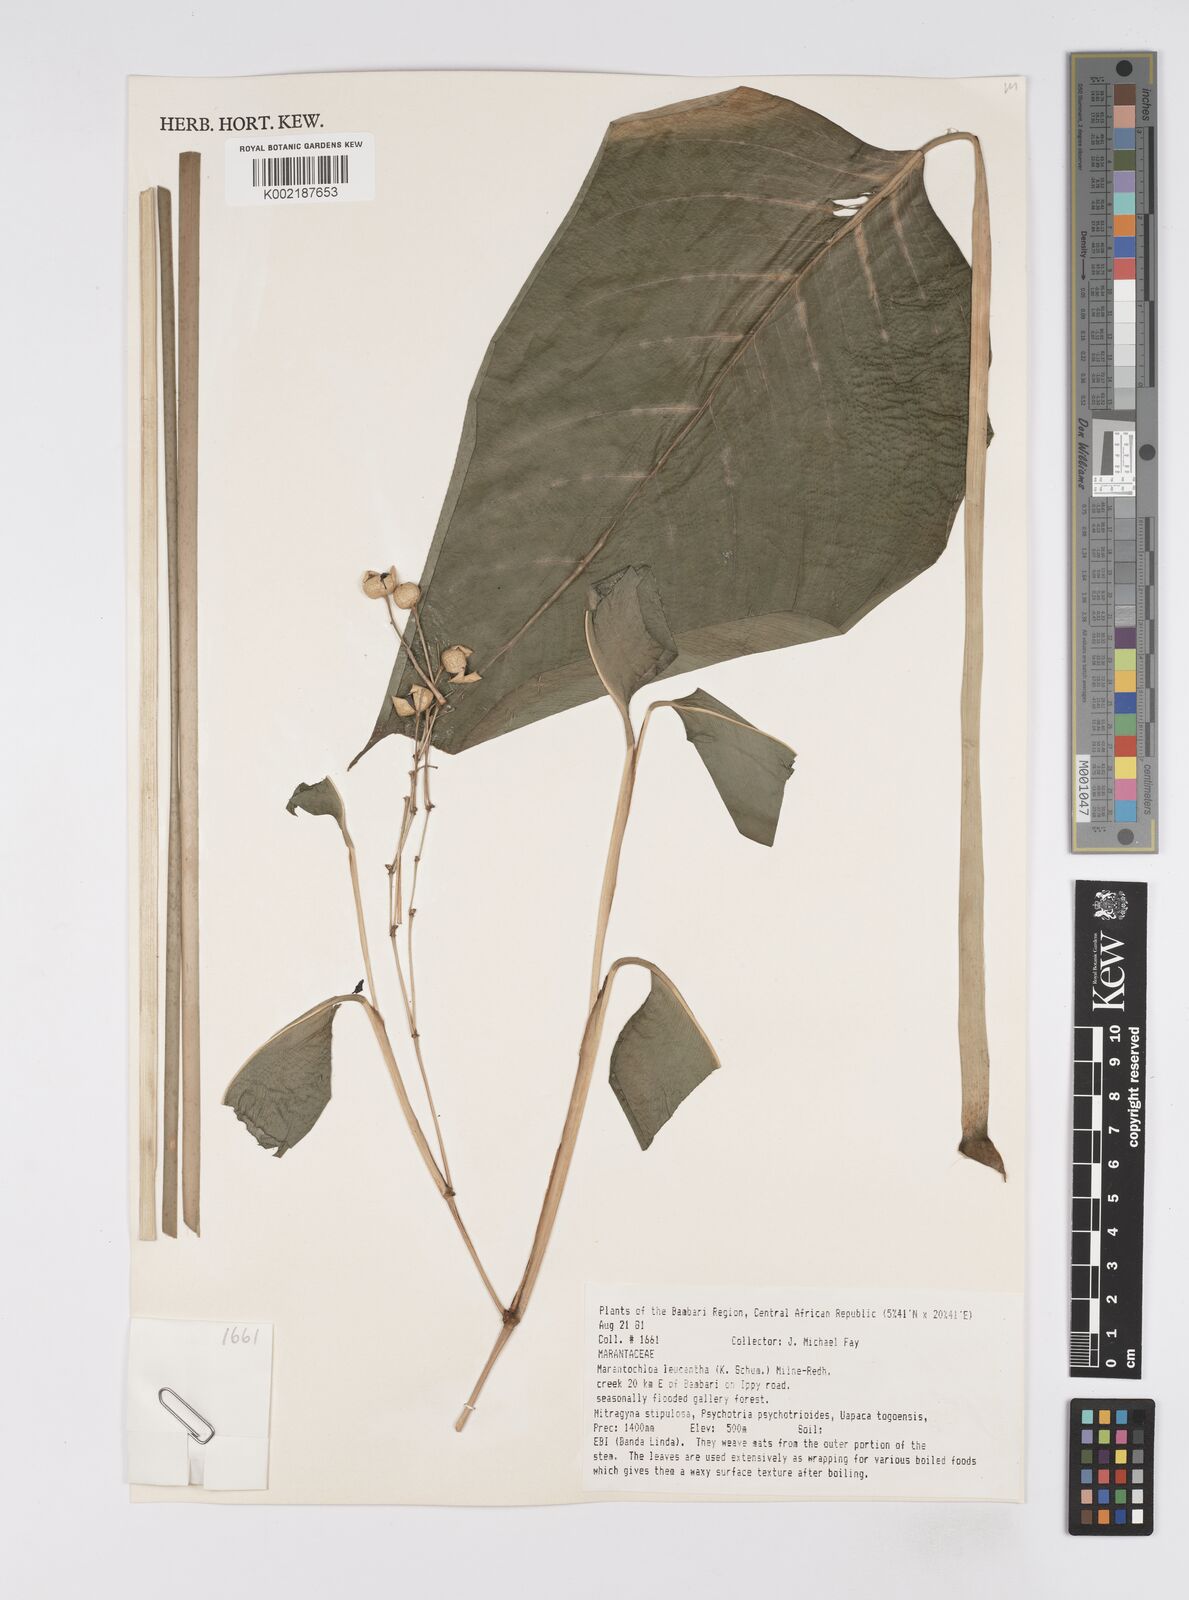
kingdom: Plantae
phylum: Tracheophyta
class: Liliopsida
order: Zingiberales
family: Marantaceae
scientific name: Marantaceae
